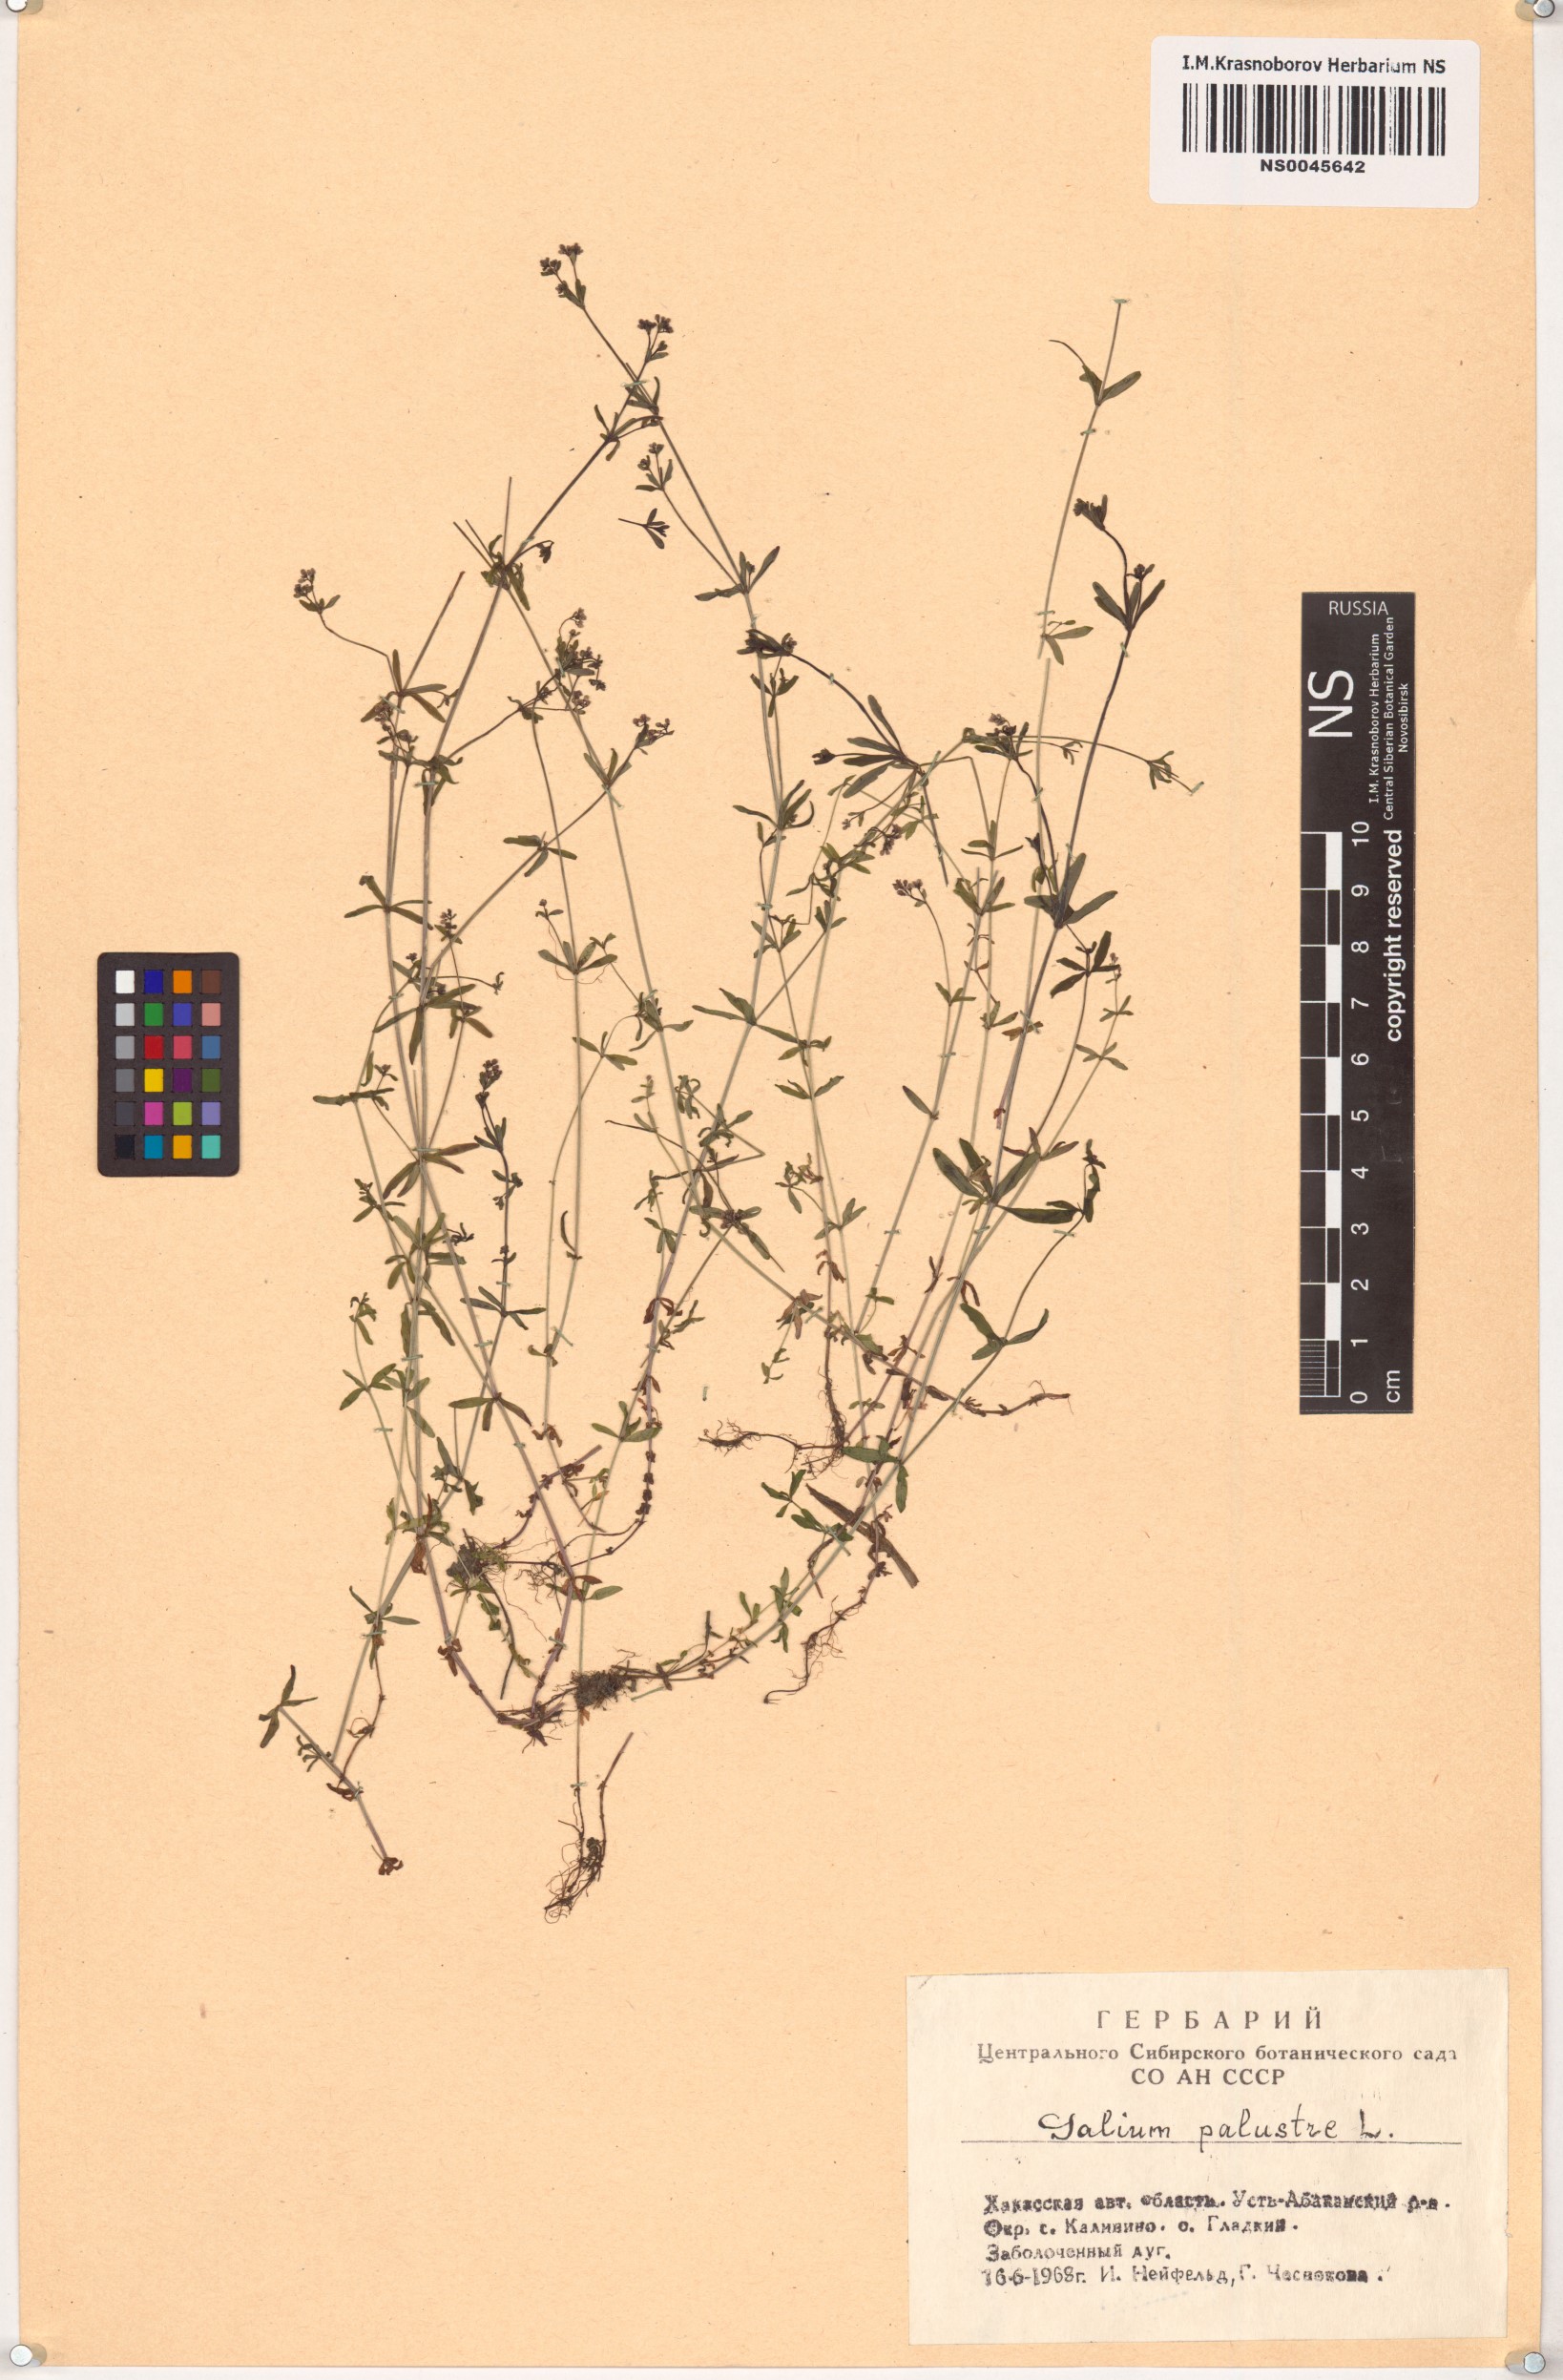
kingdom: Plantae
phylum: Tracheophyta
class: Magnoliopsida
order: Gentianales
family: Rubiaceae
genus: Galium
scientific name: Galium palustre
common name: Common marsh-bedstraw
